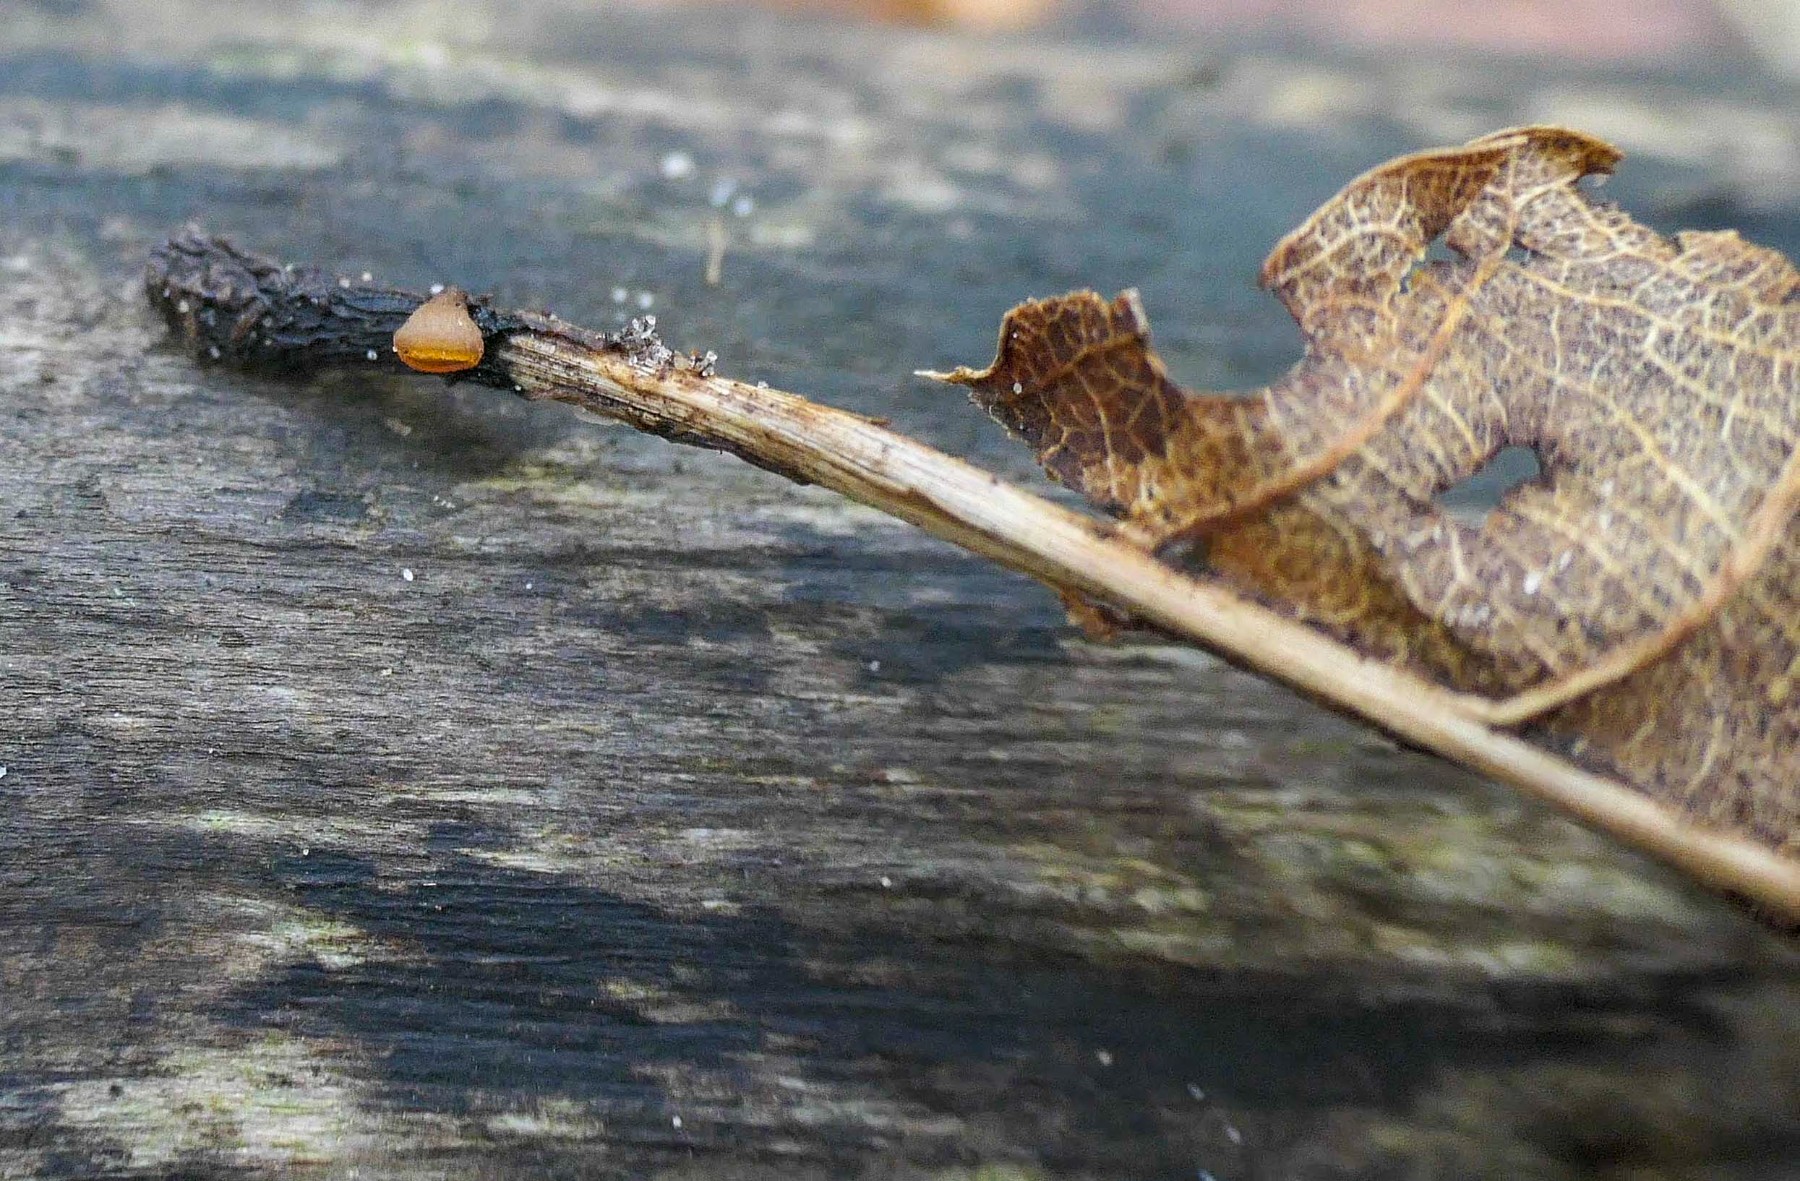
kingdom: Fungi
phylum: Ascomycota
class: Leotiomycetes
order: Helotiales
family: Rutstroemiaceae
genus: Rutstroemia
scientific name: Rutstroemia sydowiana
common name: egeblads-brunskive
